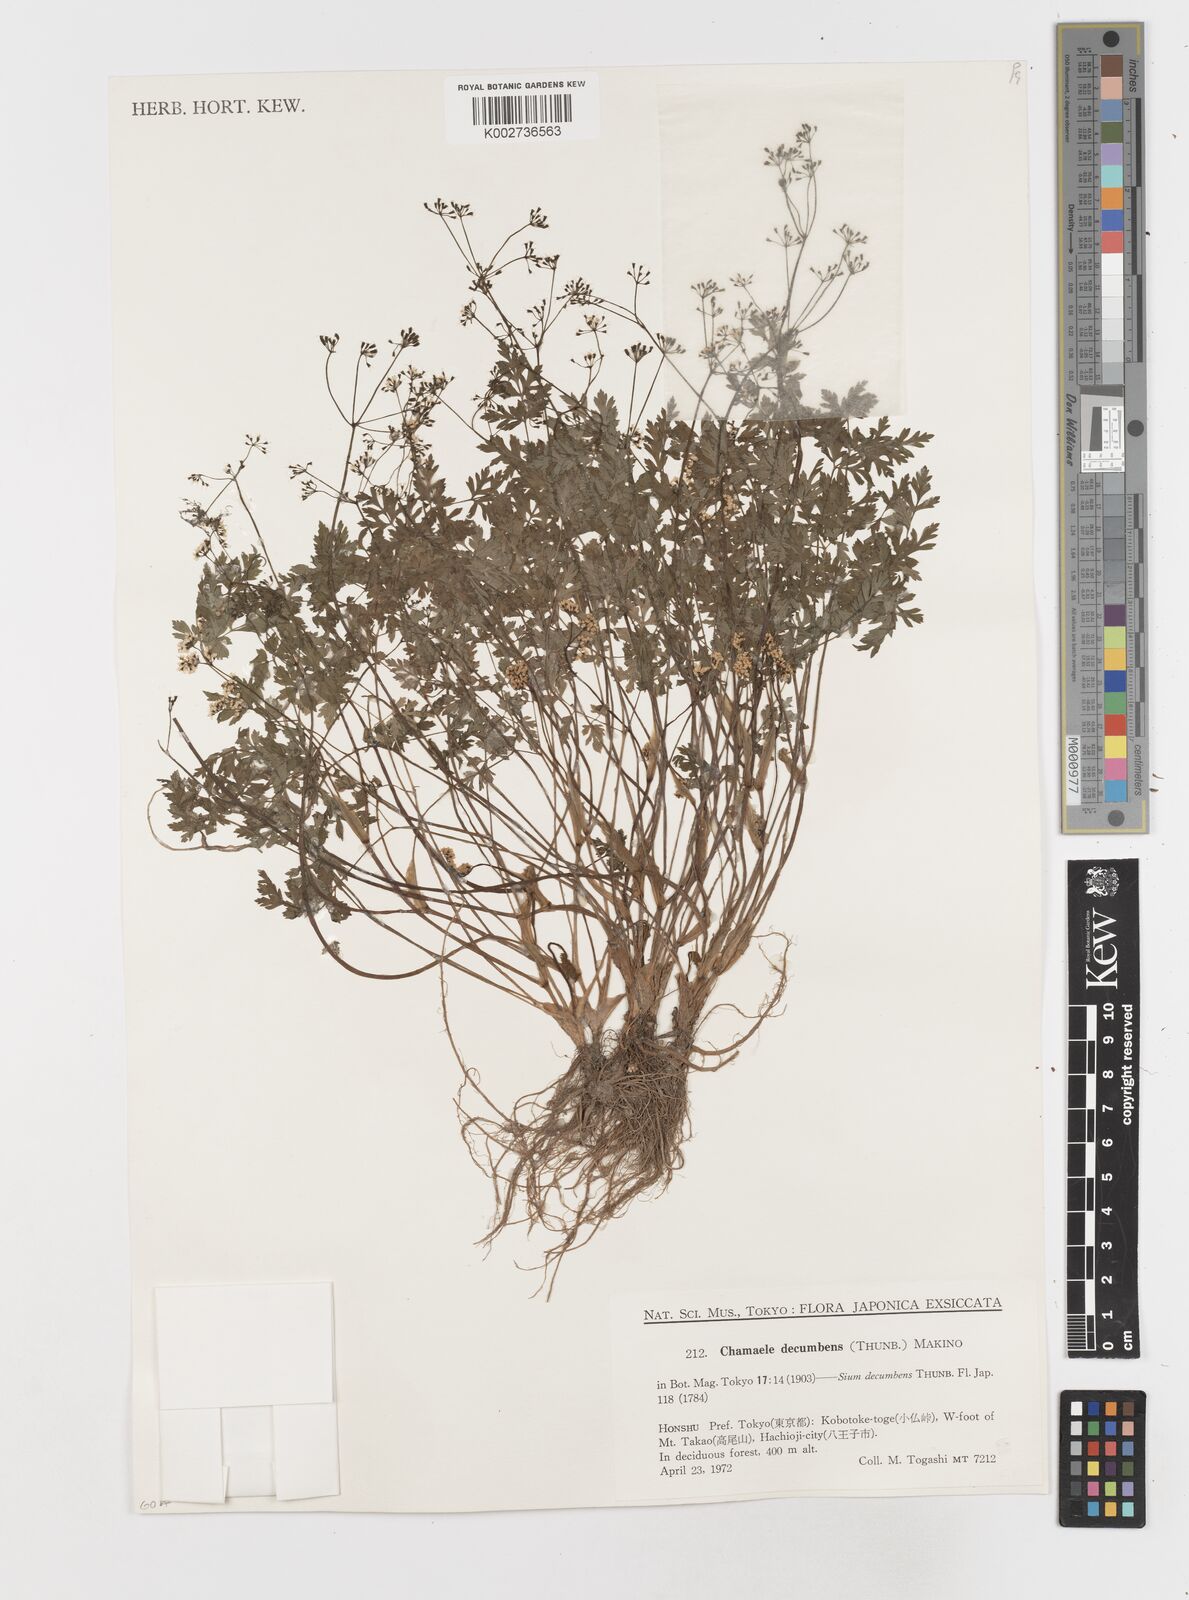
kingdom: Plantae
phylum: Tracheophyta
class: Magnoliopsida
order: Apiales
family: Apiaceae
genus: Aegopodium
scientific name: Aegopodium decumbens
